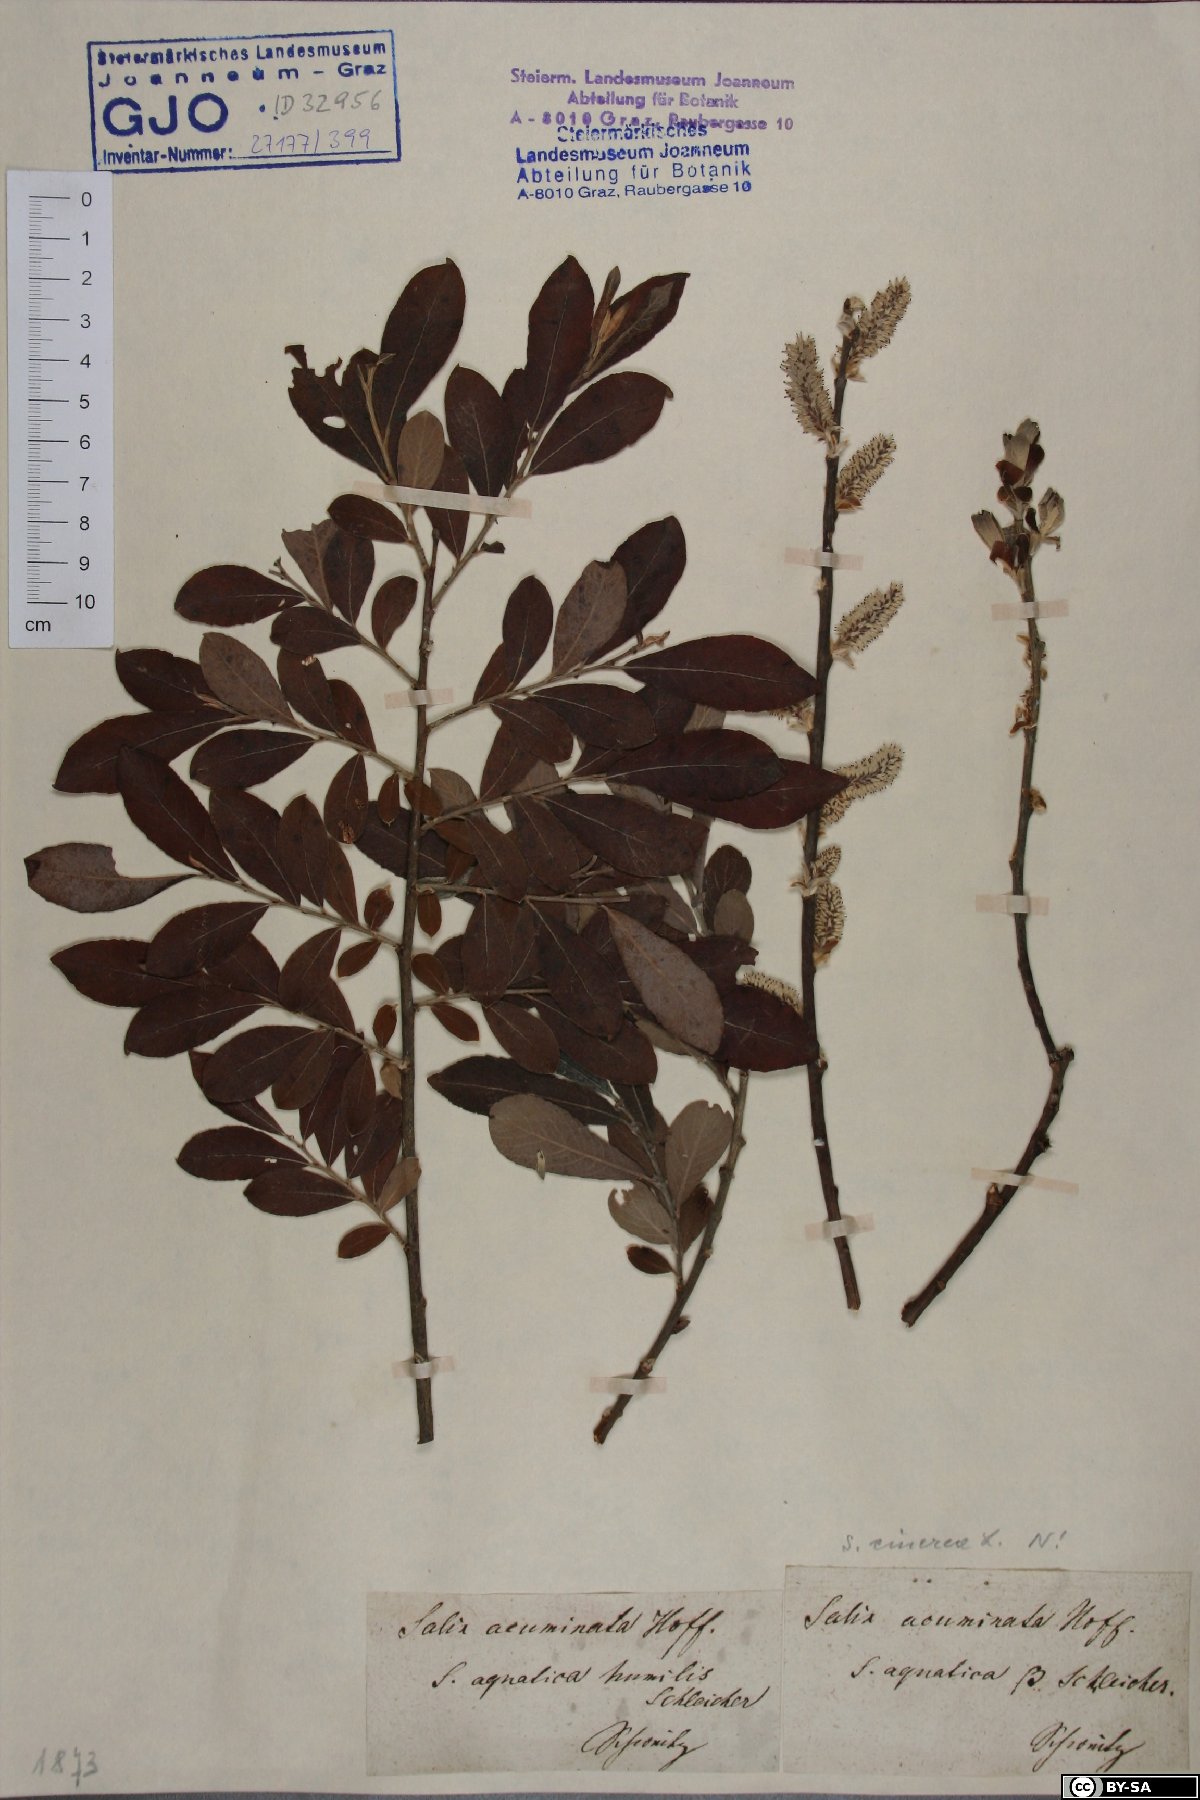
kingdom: Plantae
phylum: Tracheophyta
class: Magnoliopsida
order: Malpighiales
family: Salicaceae
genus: Salix
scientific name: Salix cinerea
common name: Common sallow
